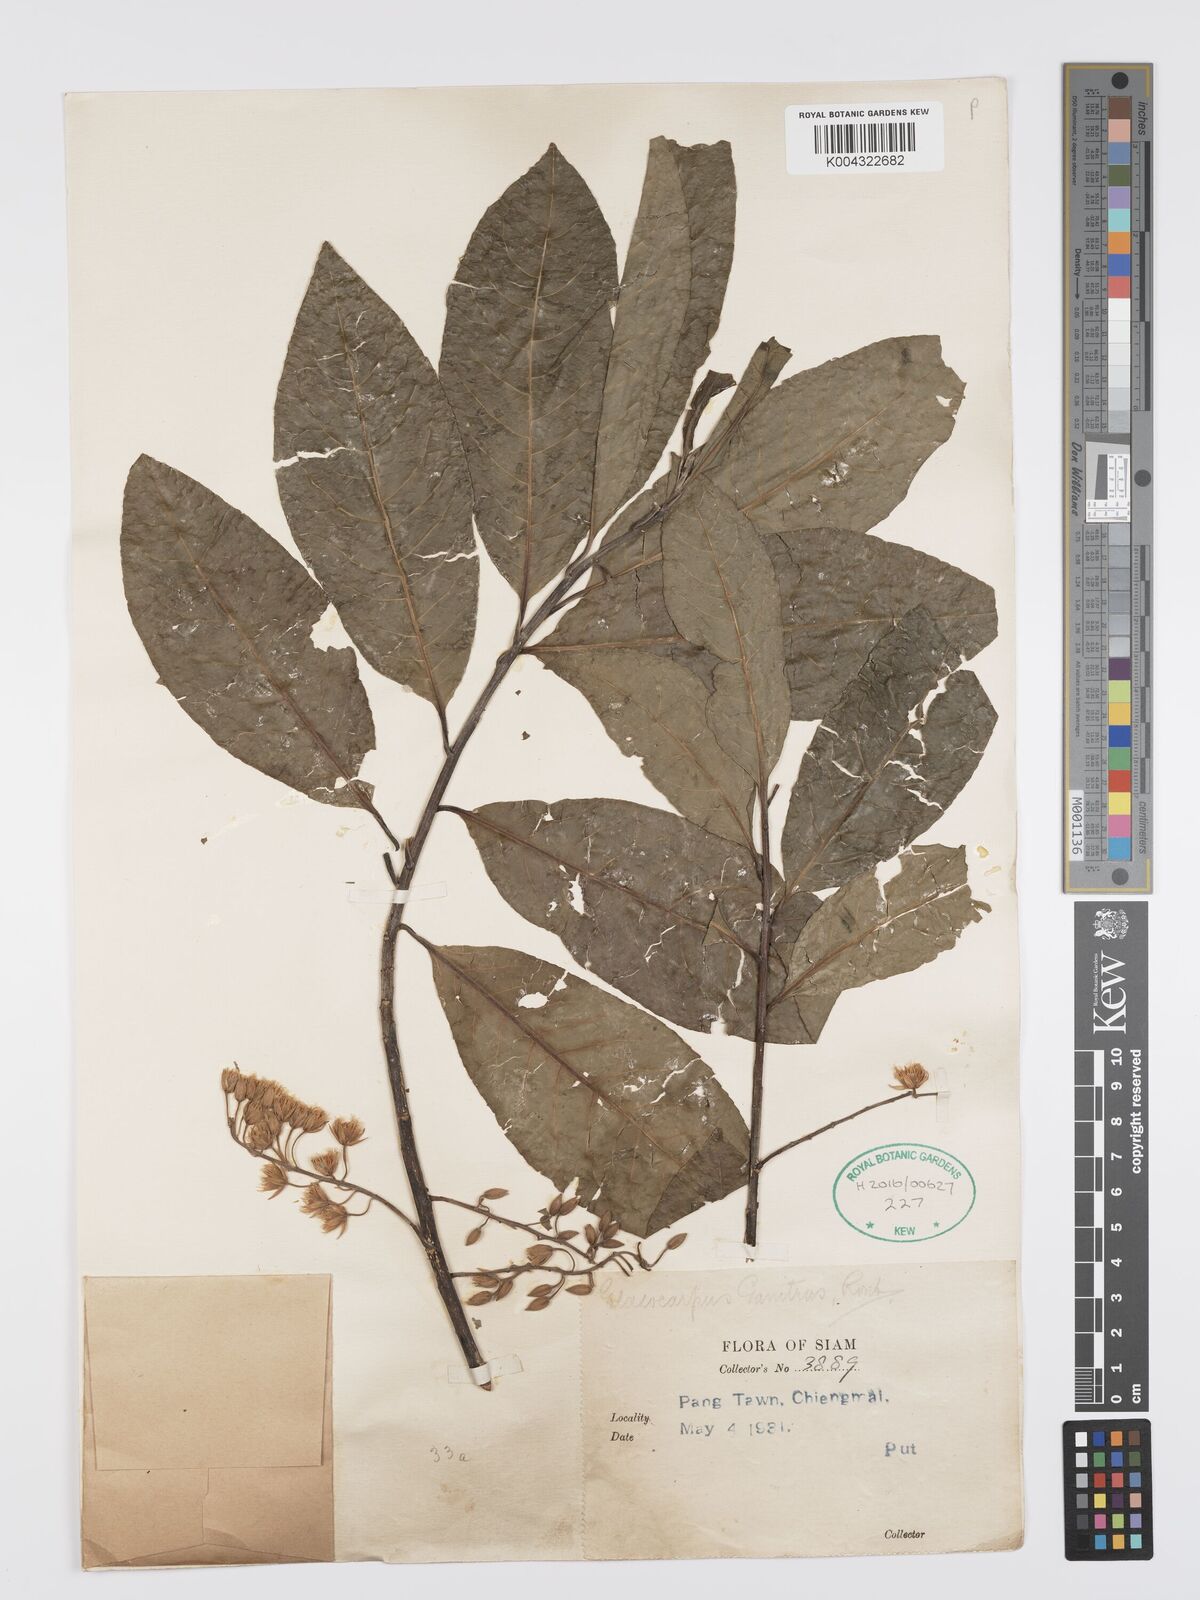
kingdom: Plantae
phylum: Tracheophyta
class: Magnoliopsida
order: Oxalidales
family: Elaeocarpaceae
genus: Elaeocarpus
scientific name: Elaeocarpus
